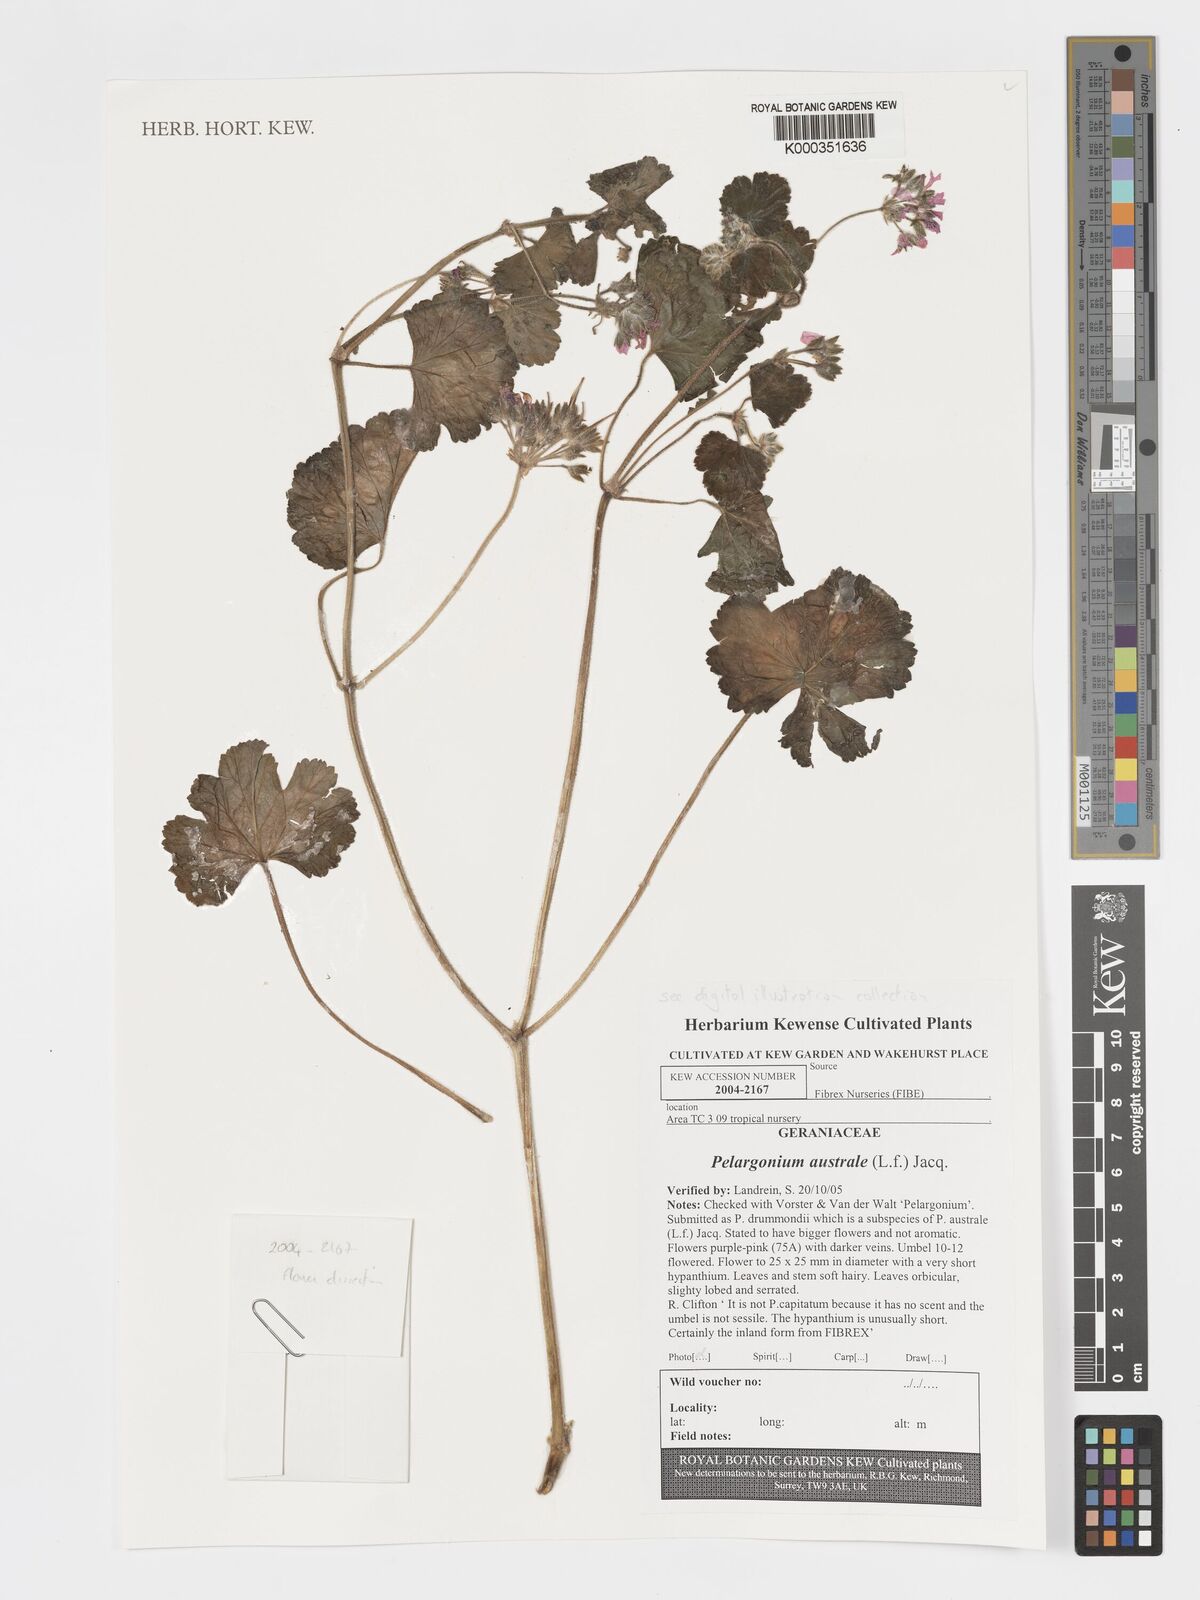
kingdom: Plantae
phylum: Tracheophyta
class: Magnoliopsida
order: Geraniales
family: Geraniaceae
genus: Pelargonium
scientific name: Pelargonium
